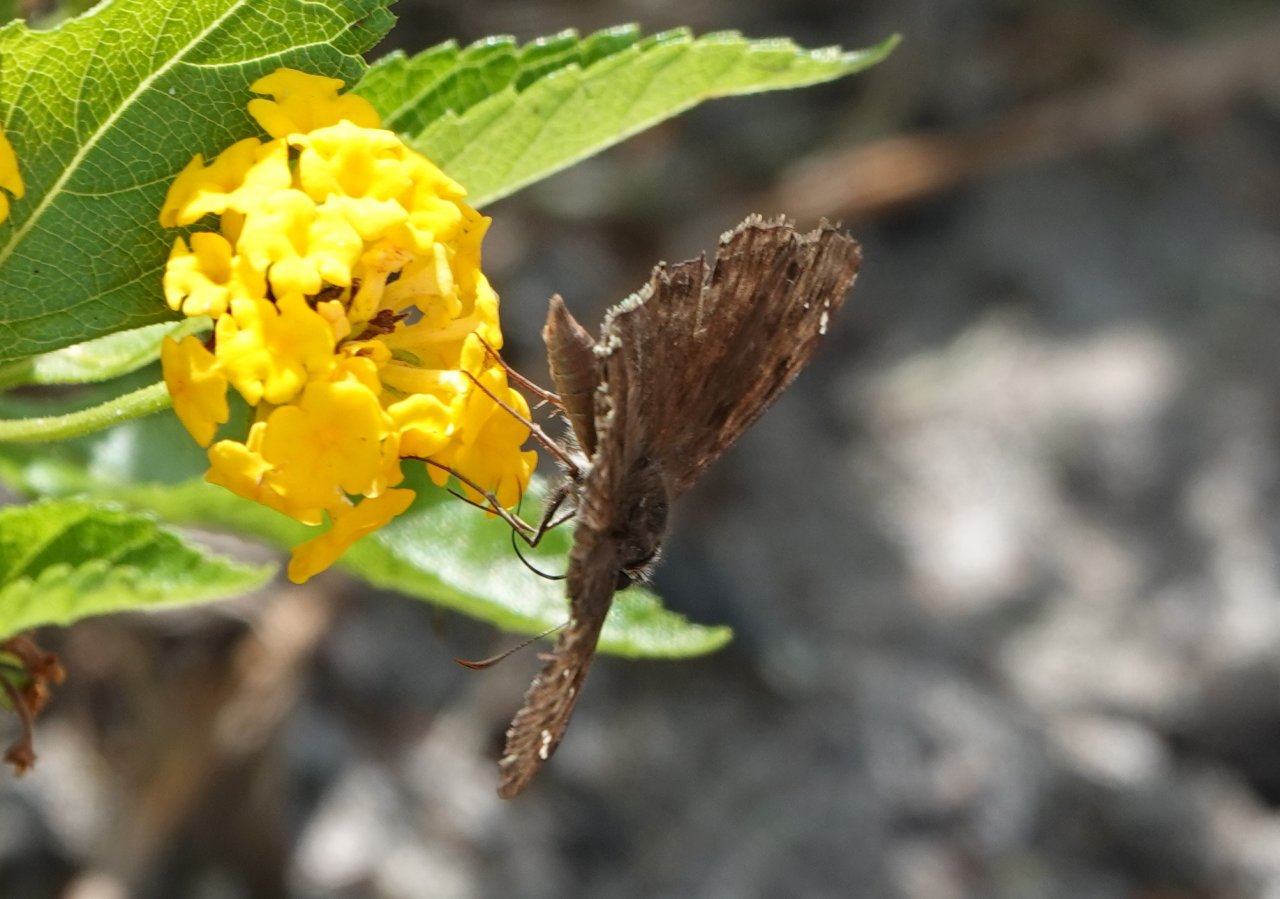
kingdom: Animalia
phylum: Arthropoda
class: Insecta
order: Lepidoptera
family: Hesperiidae
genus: Gesta
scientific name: Gesta
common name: Horace's Duskywing
